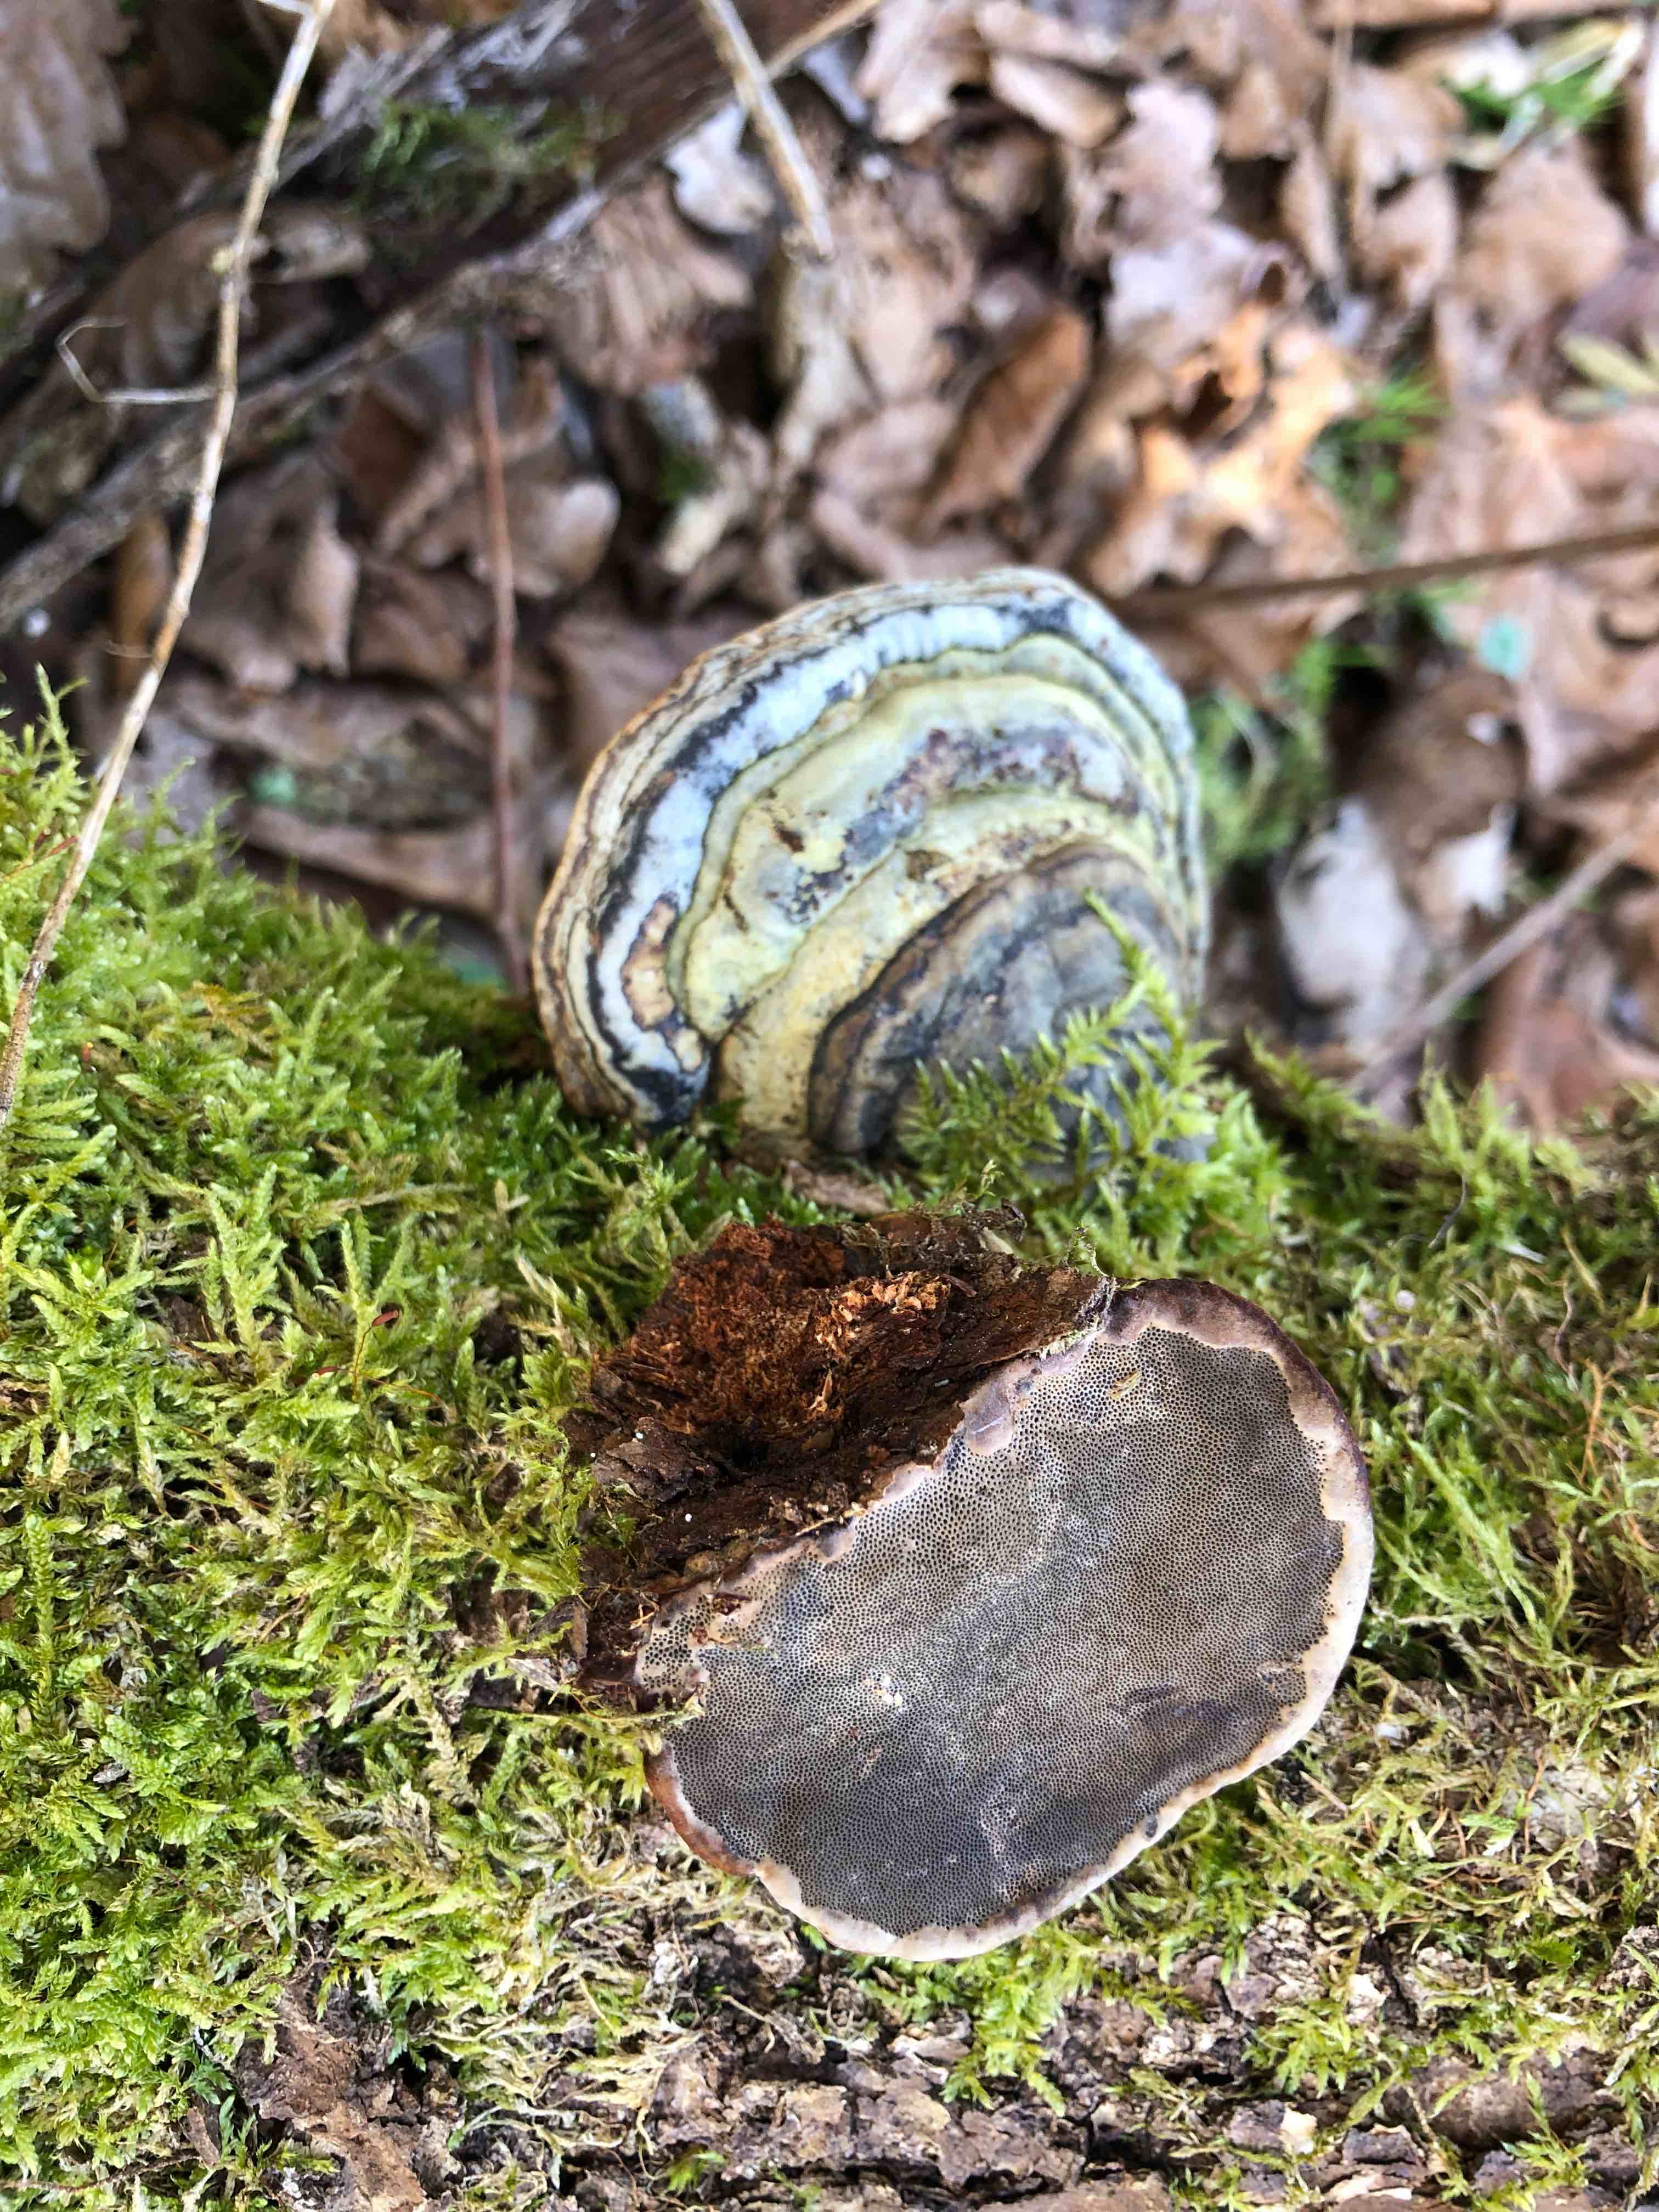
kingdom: Fungi
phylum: Basidiomycota
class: Agaricomycetes
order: Polyporales
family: Polyporaceae
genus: Fomes
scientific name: Fomes fomentarius
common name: tøndersvamp
